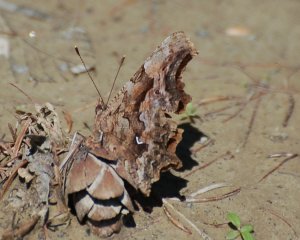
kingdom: Animalia
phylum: Arthropoda
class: Insecta
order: Lepidoptera
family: Nymphalidae
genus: Polygonia
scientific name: Polygonia faunus
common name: Green Comma
